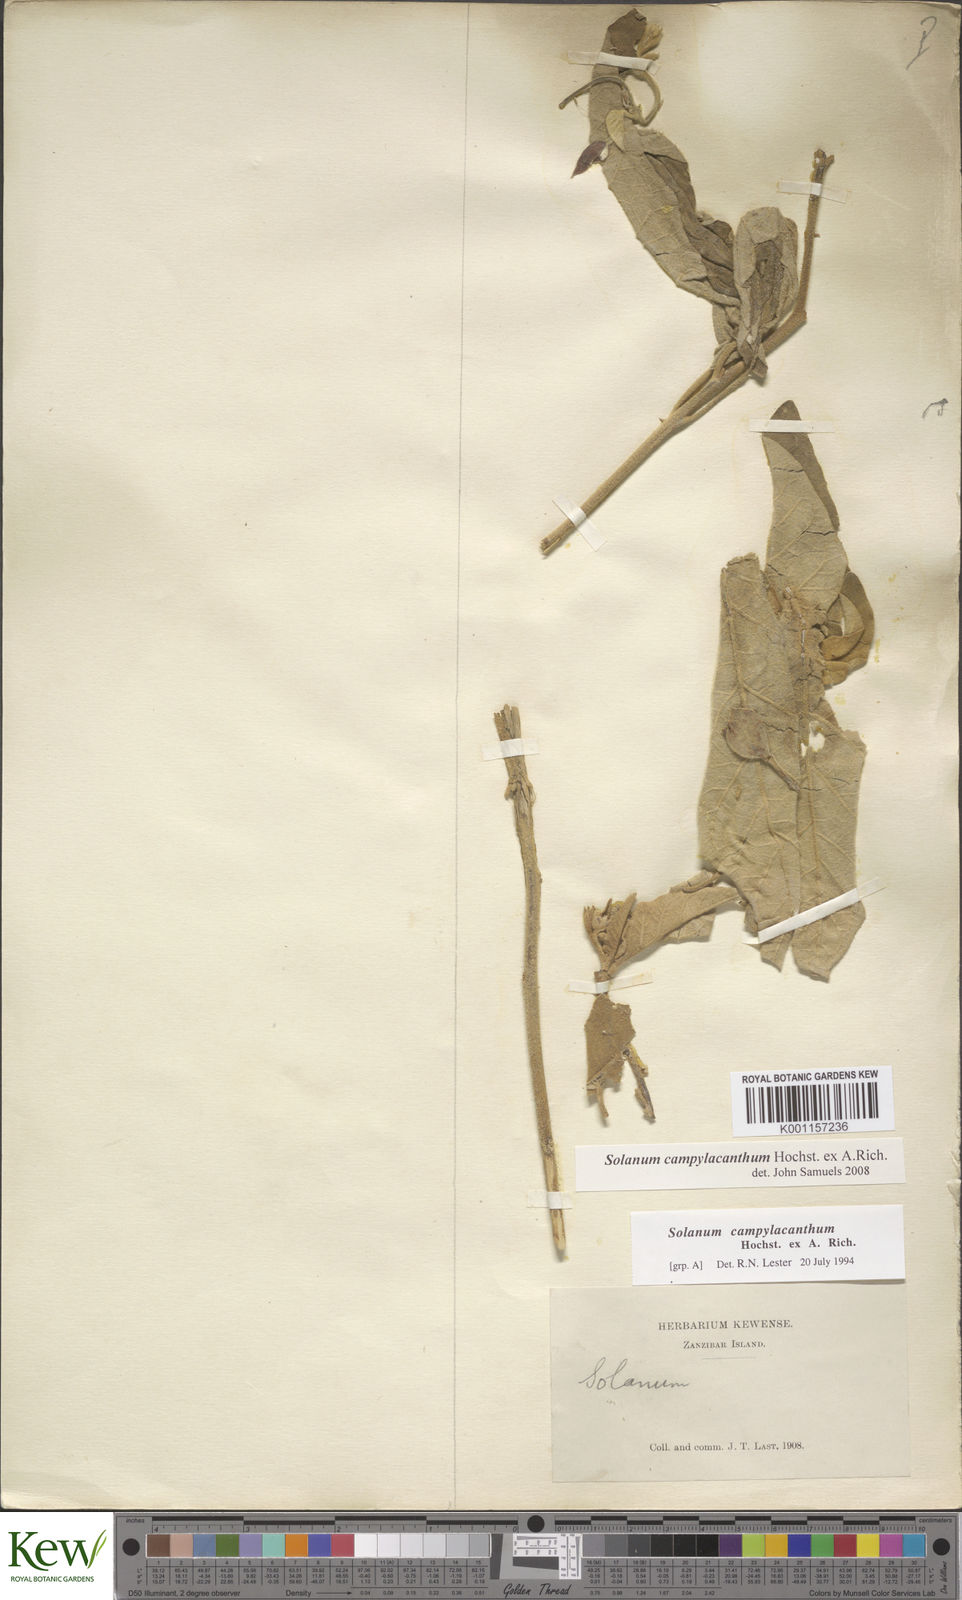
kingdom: Plantae
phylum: Tracheophyta
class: Magnoliopsida
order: Solanales
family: Solanaceae
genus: Solanum
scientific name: Solanum campylacanthum
